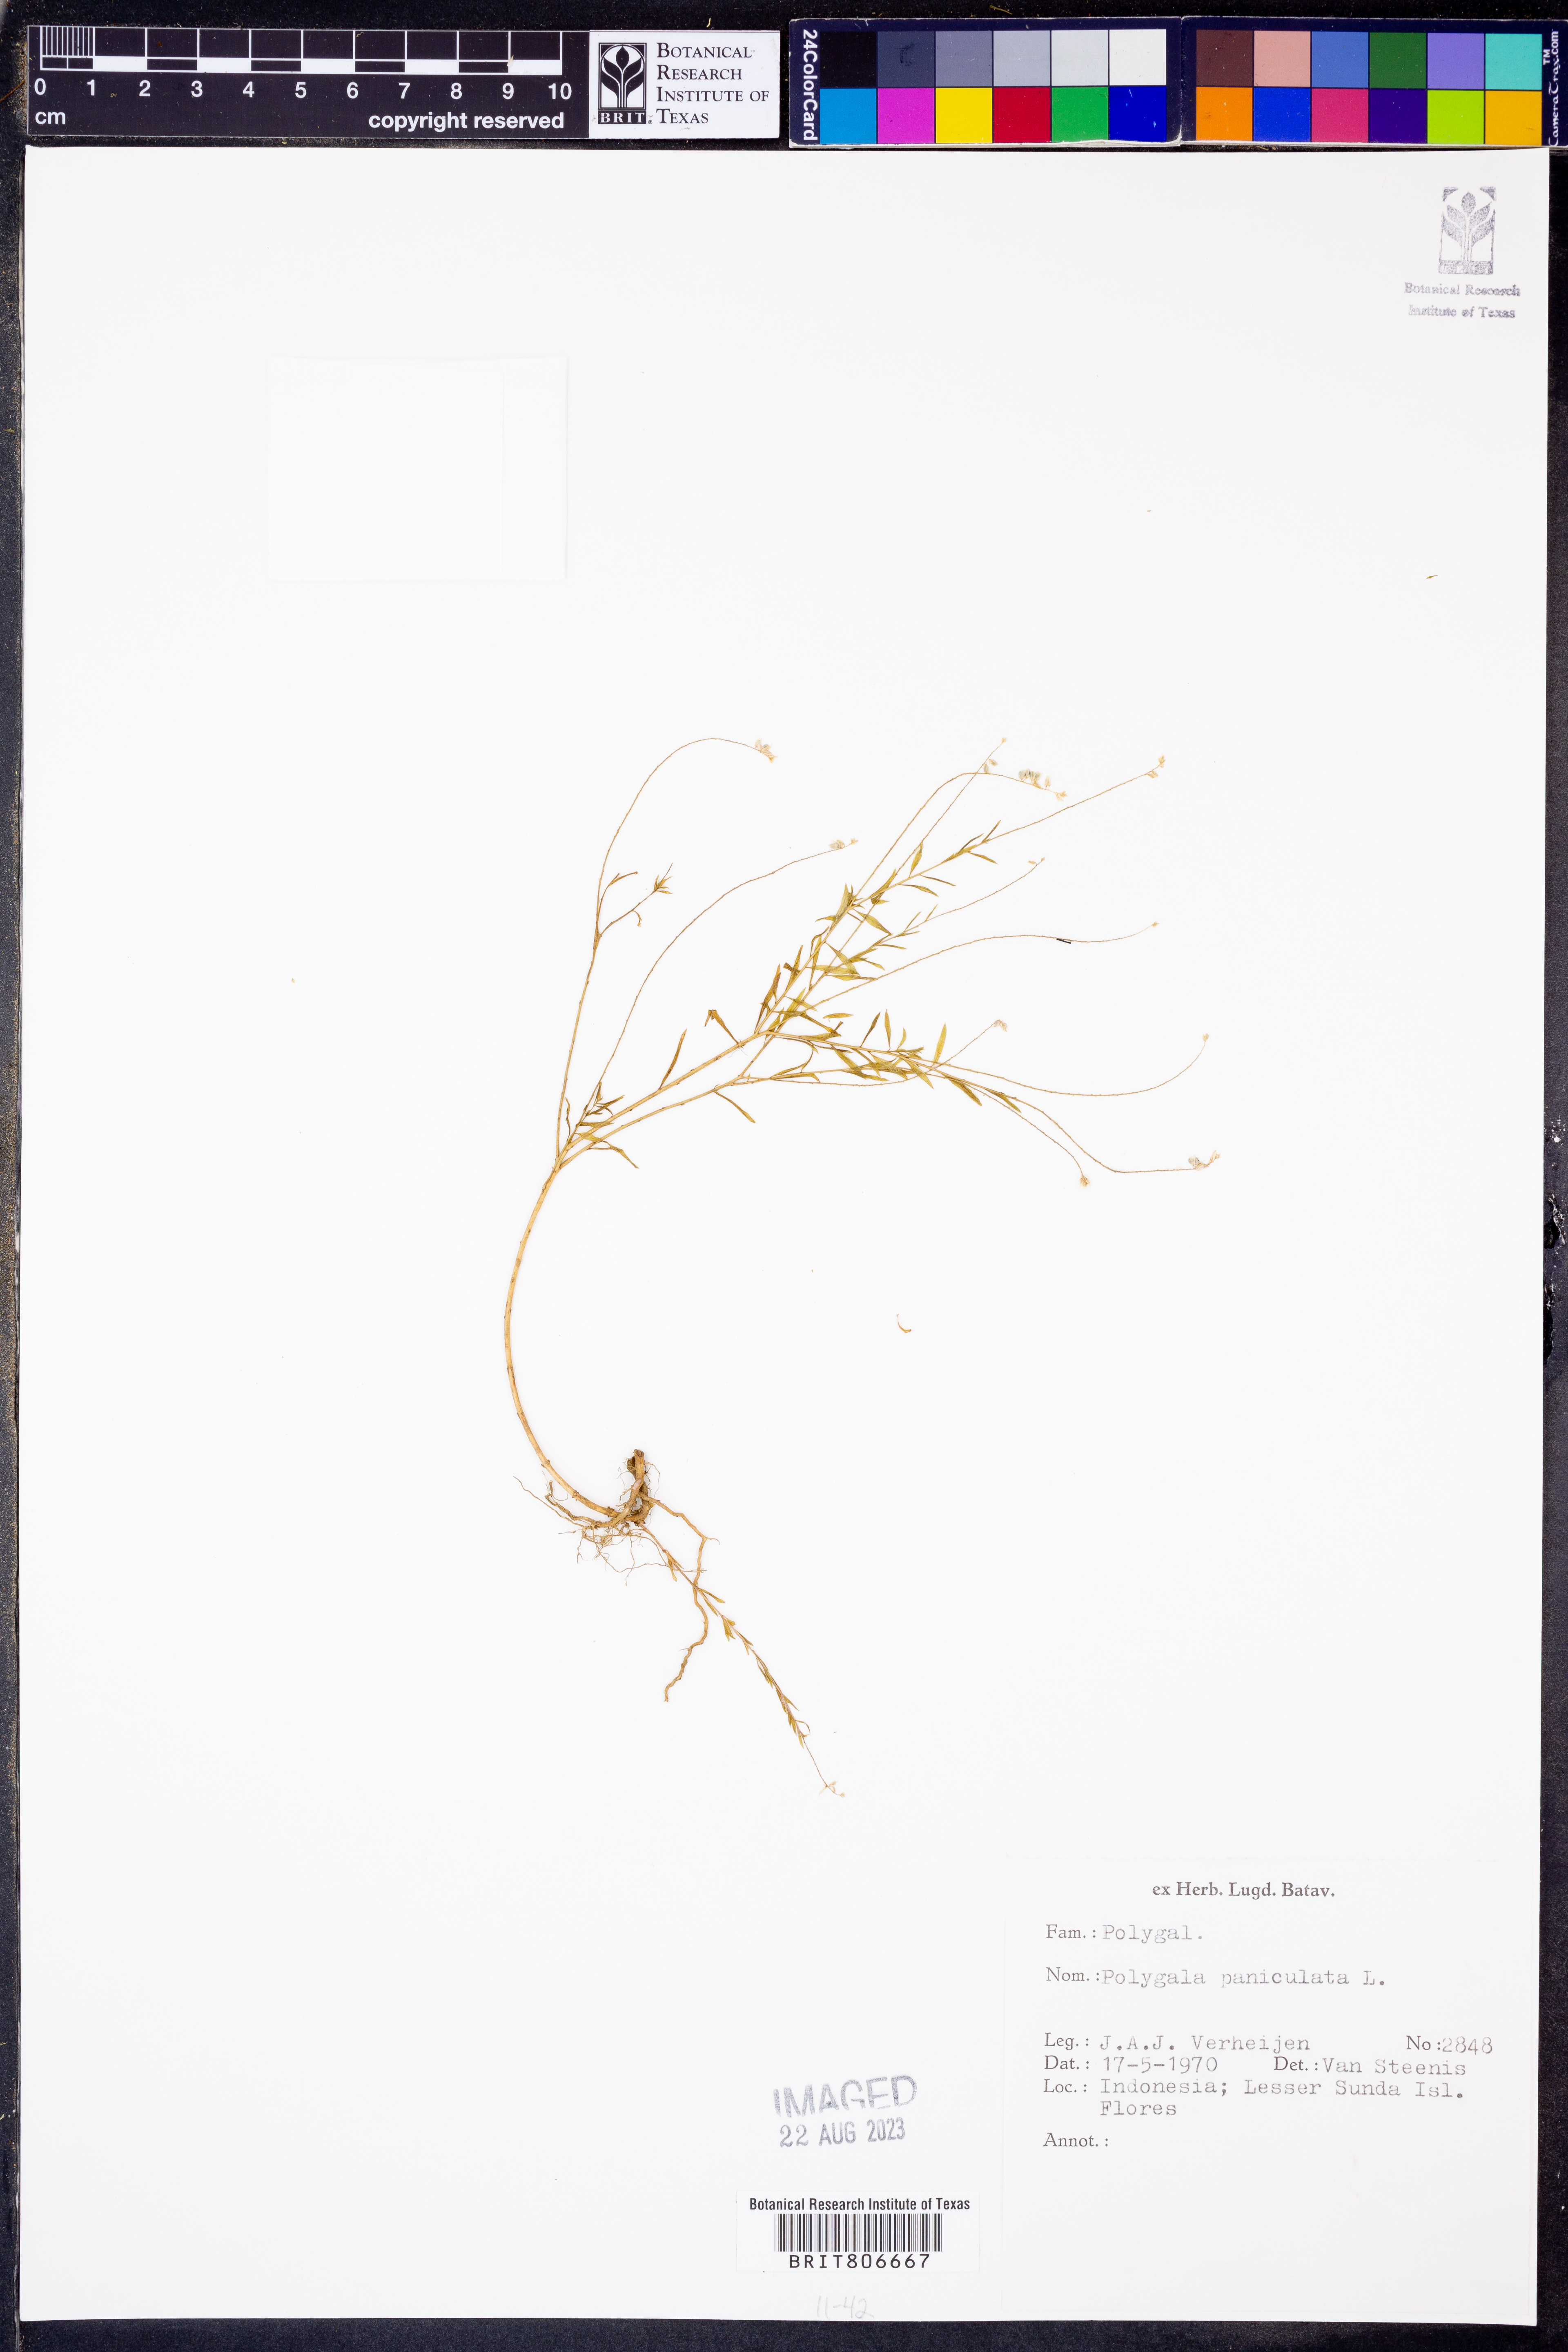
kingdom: Plantae
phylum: Tracheophyta
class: Magnoliopsida
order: Fabales
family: Polygalaceae
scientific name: Polygalaceae
